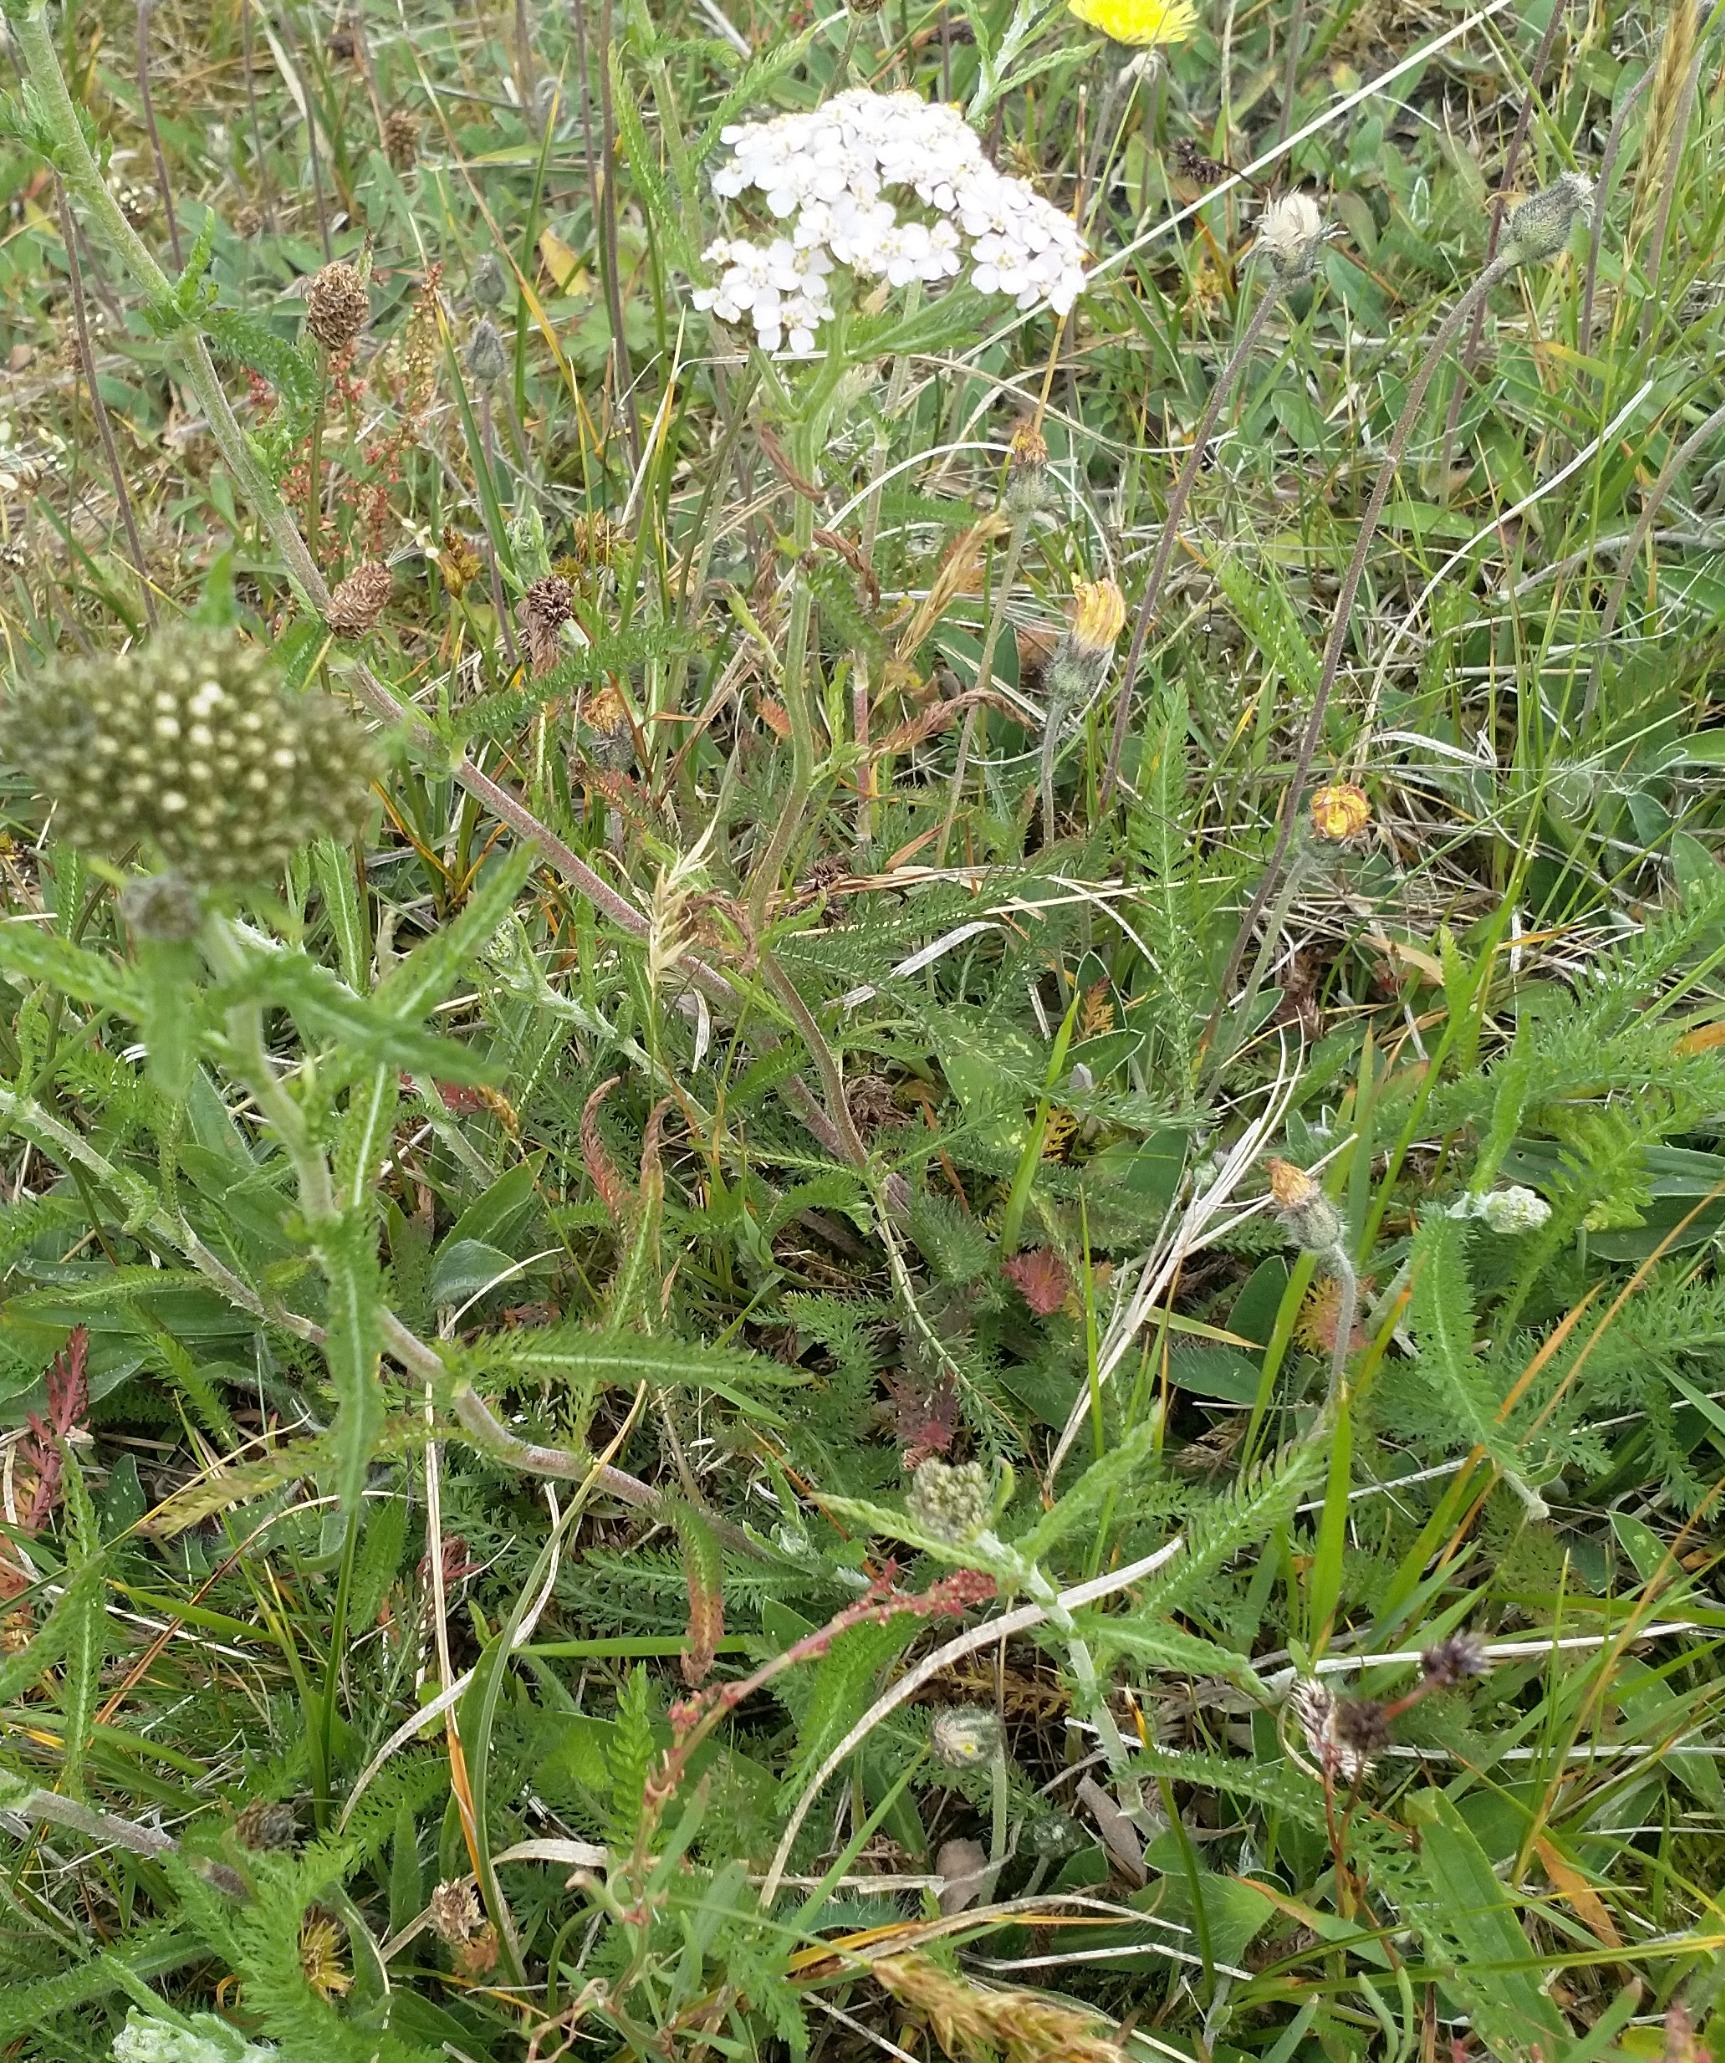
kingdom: Plantae
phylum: Tracheophyta
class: Magnoliopsida
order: Asterales
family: Asteraceae
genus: Achillea
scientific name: Achillea millefolium
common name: Almindelig røllike
